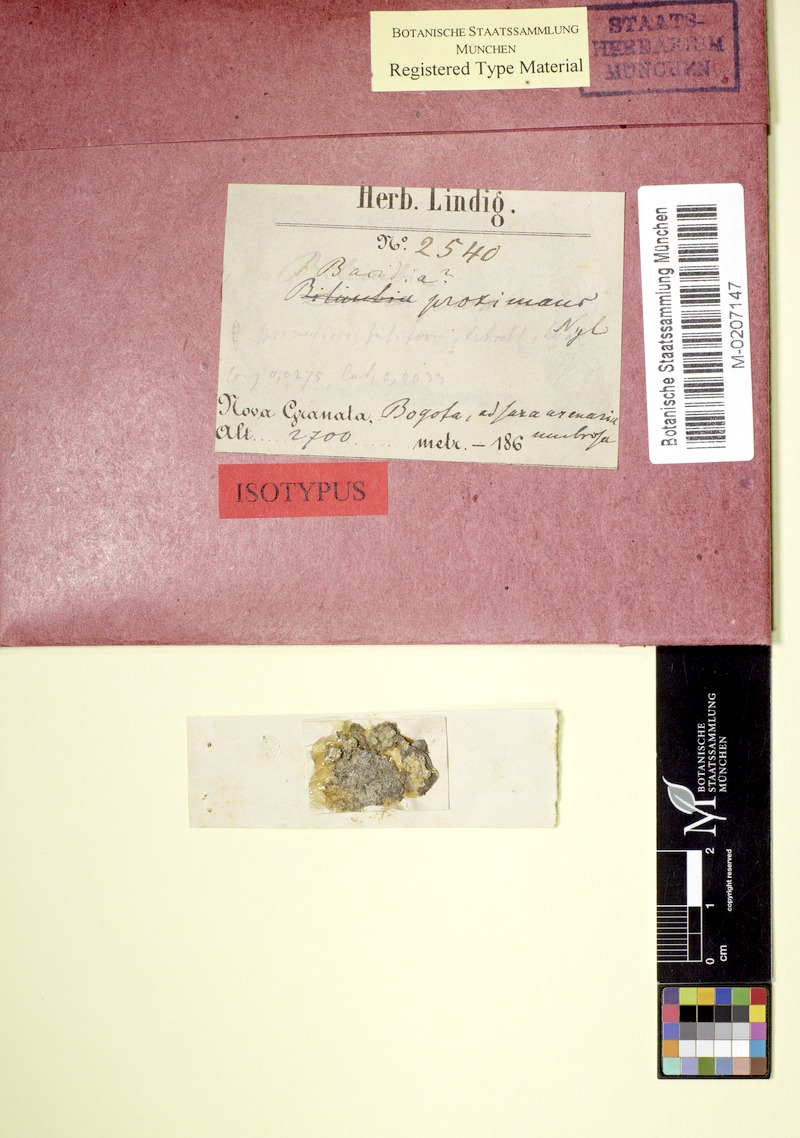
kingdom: Fungi
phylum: Ascomycota
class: Arthoniomycetes
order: Arthoniales
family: Roccellaceae
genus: Lecanactis
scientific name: Lecanactis proximans
